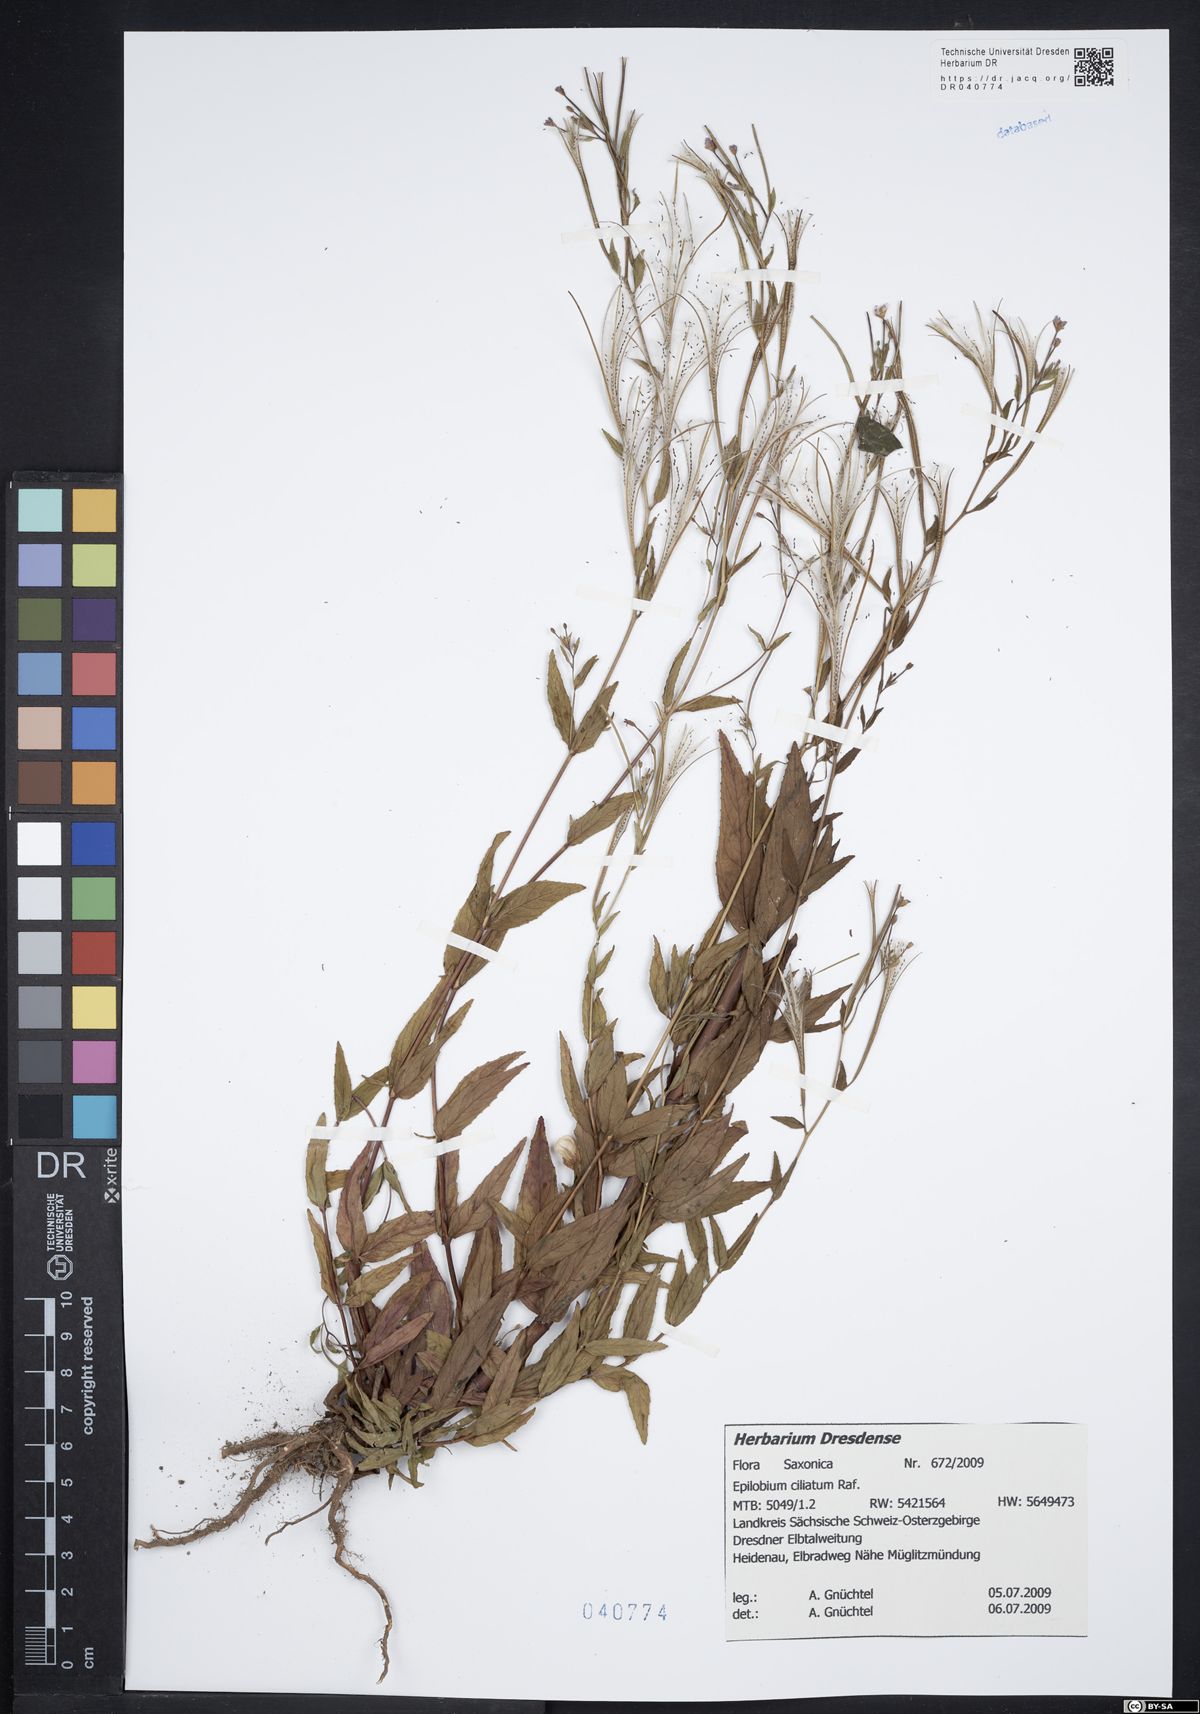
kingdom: Plantae
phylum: Tracheophyta
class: Magnoliopsida
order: Myrtales
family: Onagraceae
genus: Epilobium
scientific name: Epilobium ciliatum
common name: American willowherb
